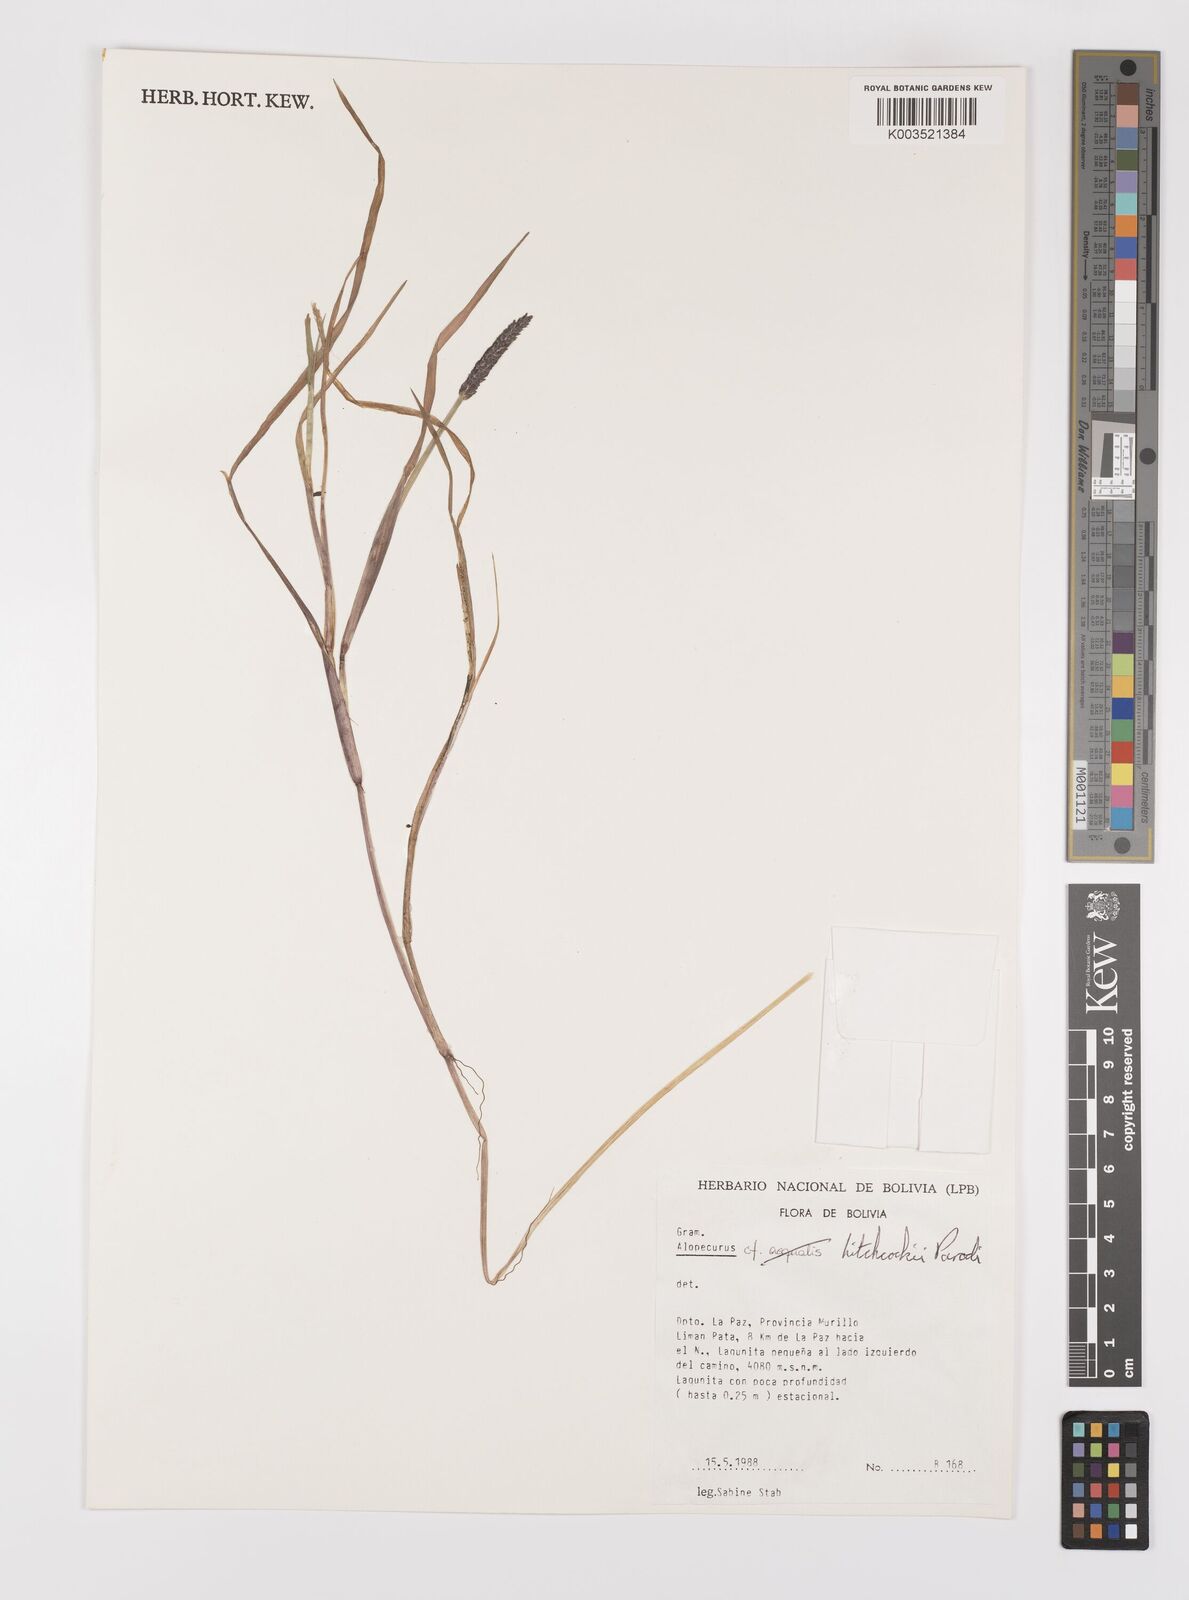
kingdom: Plantae
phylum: Tracheophyta
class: Liliopsida
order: Poales
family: Poaceae
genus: Alopecurus
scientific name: Alopecurus hitchcockii
